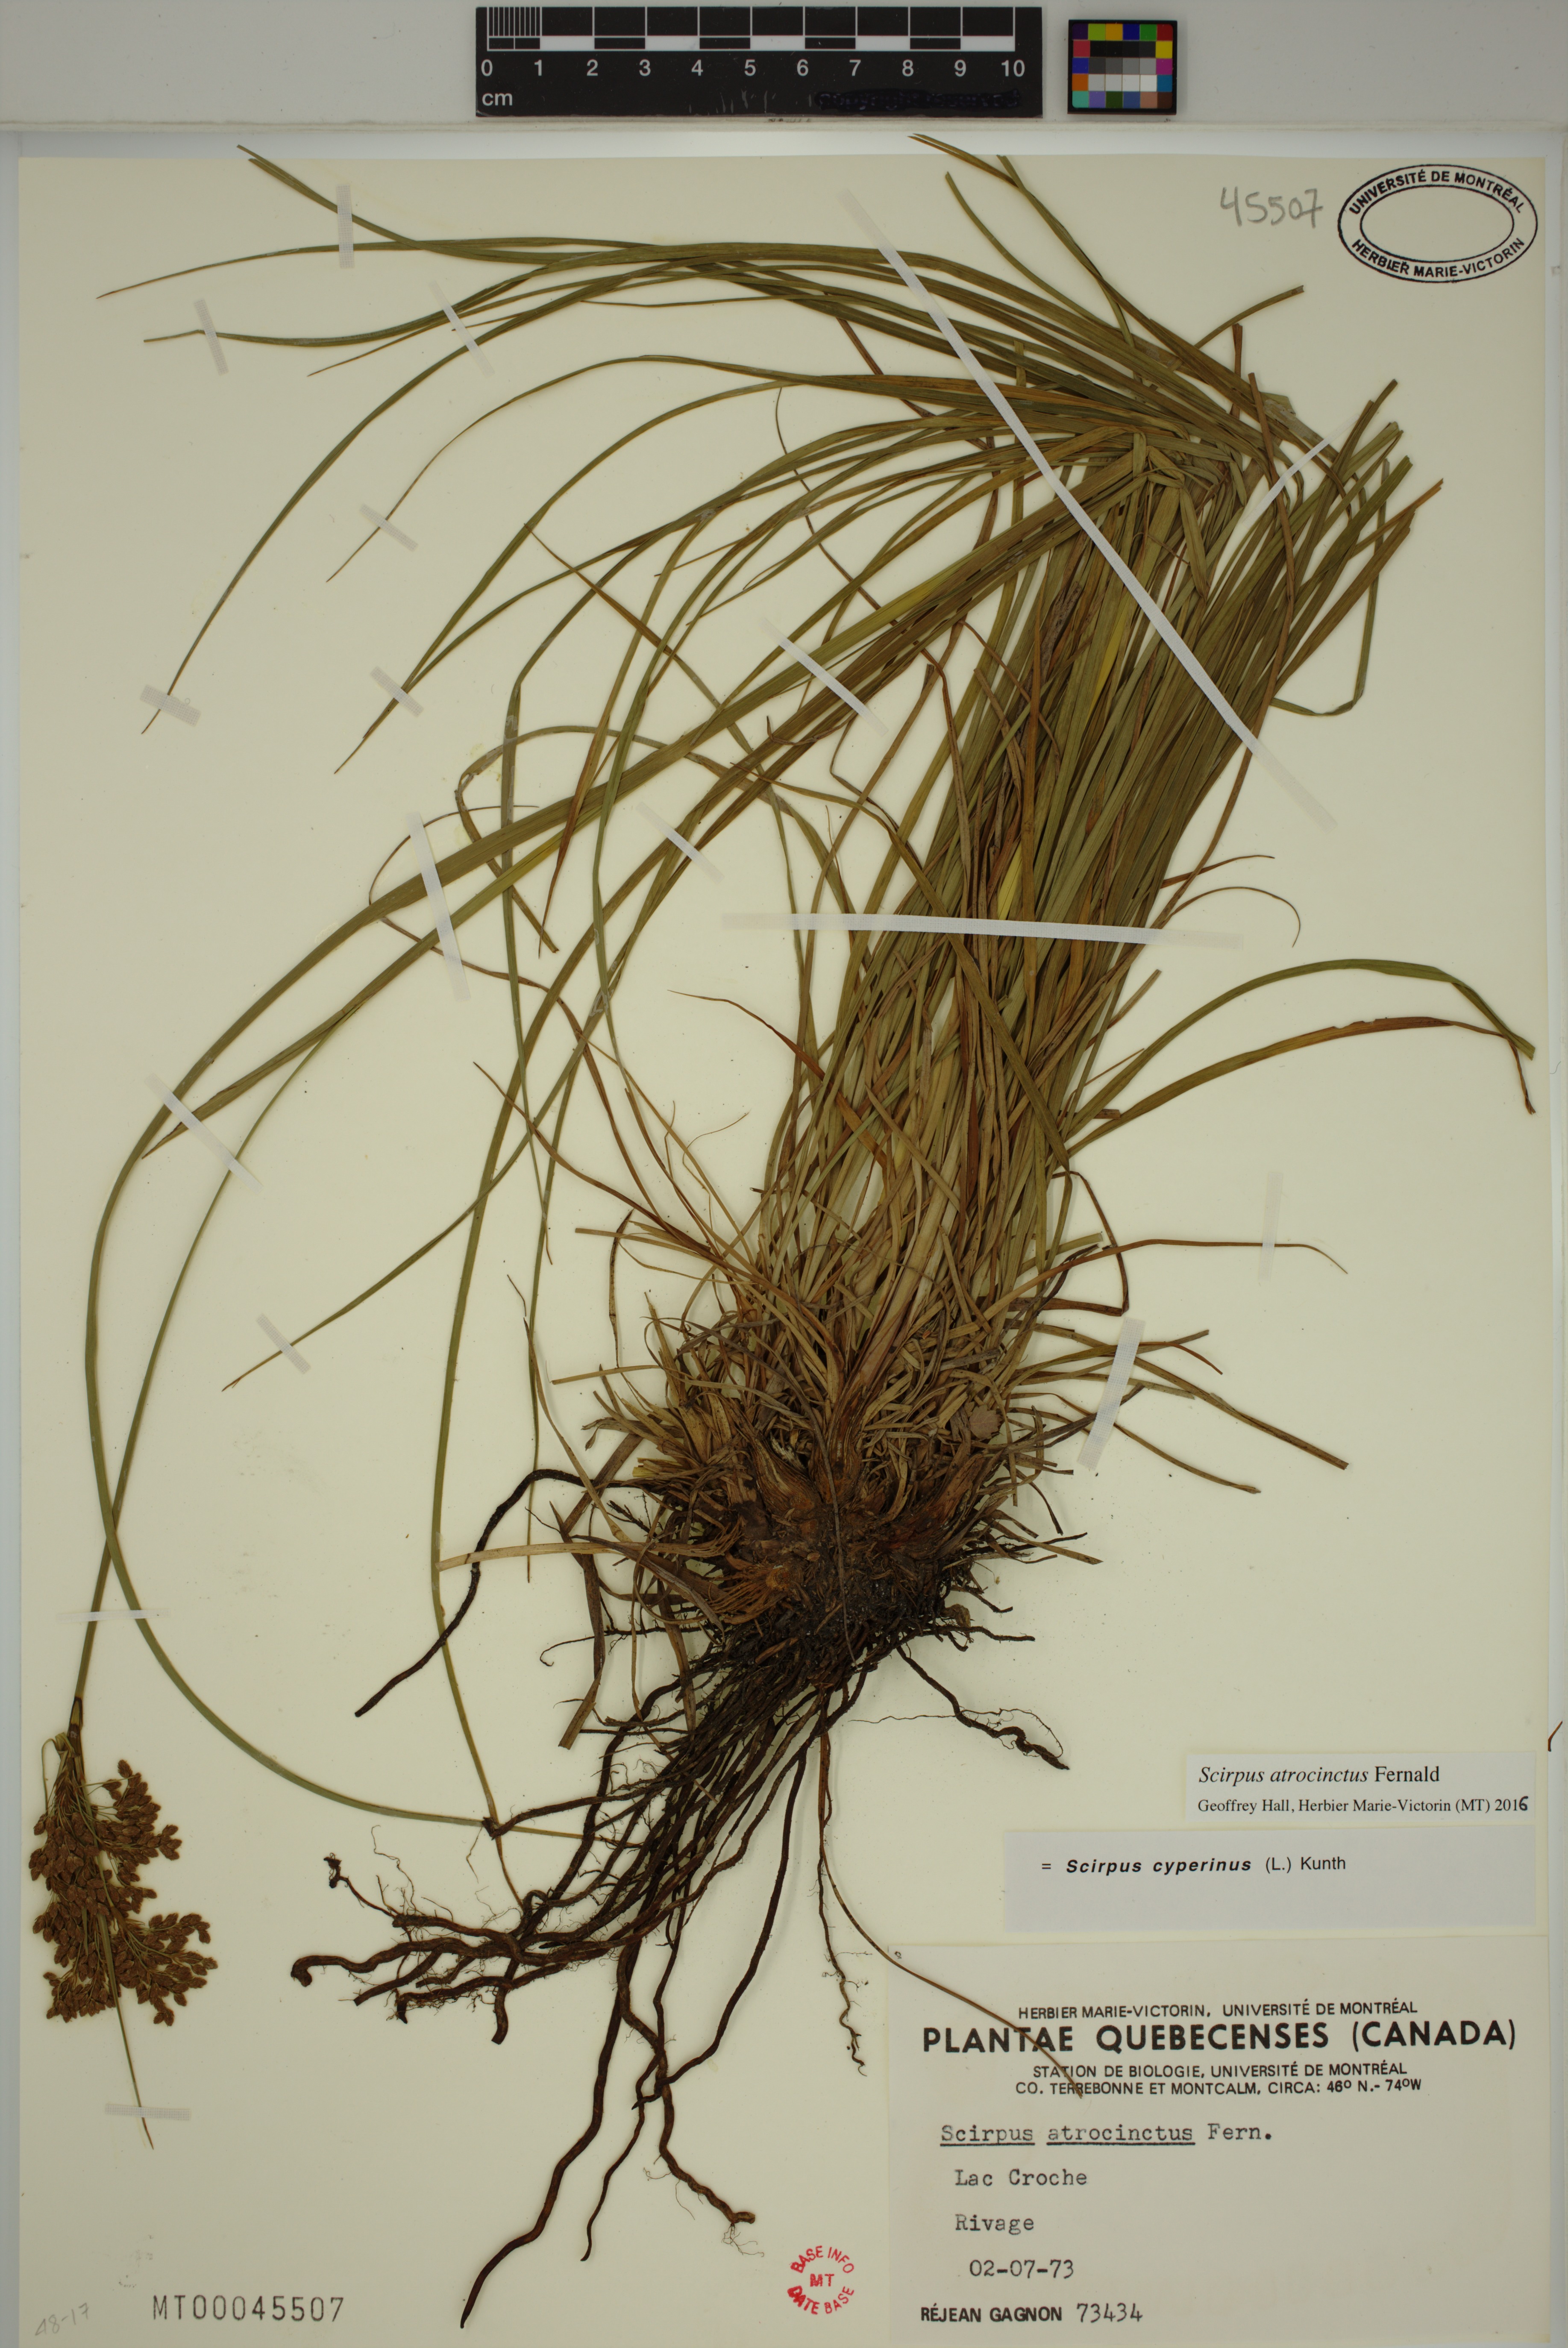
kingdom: Plantae
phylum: Tracheophyta
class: Liliopsida
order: Poales
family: Cyperaceae
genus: Scirpus
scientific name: Scirpus atrocinctus
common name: Black-girdled bulrush
